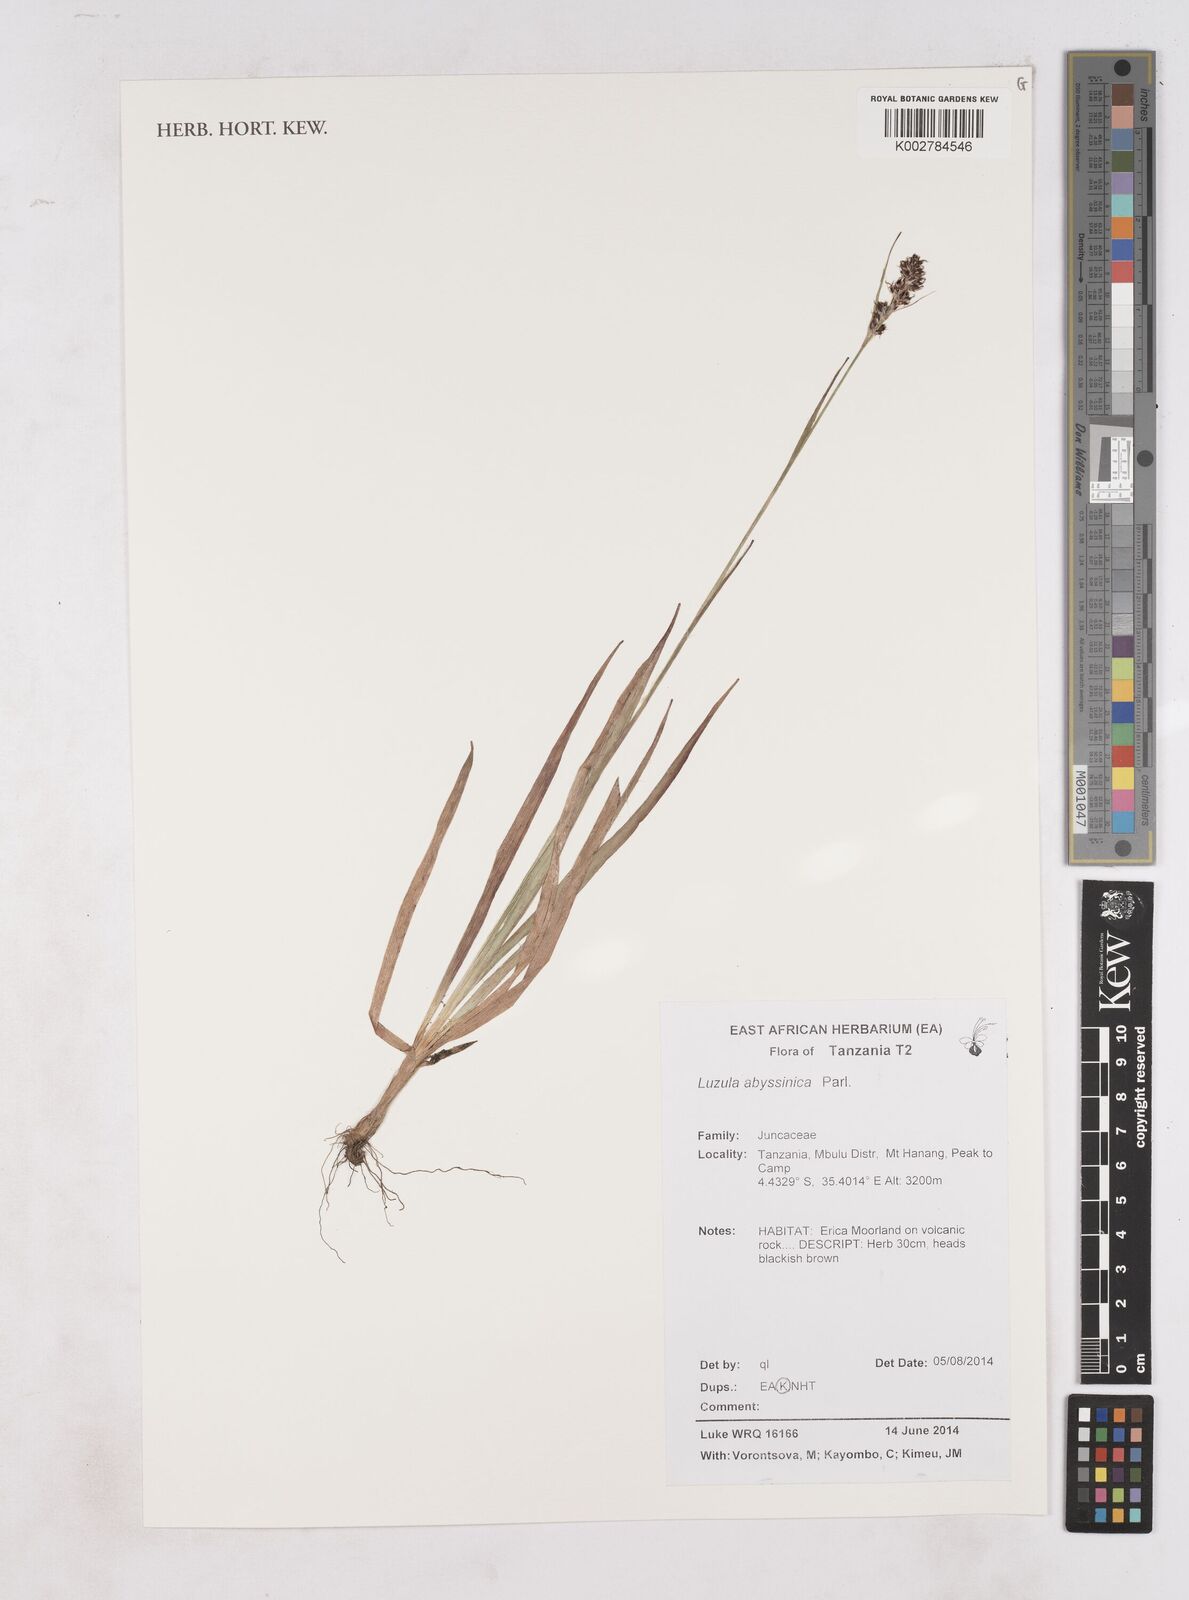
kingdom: Plantae
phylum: Tracheophyta
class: Liliopsida
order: Poales
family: Juncaceae
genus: Luzula
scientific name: Luzula abyssinica
